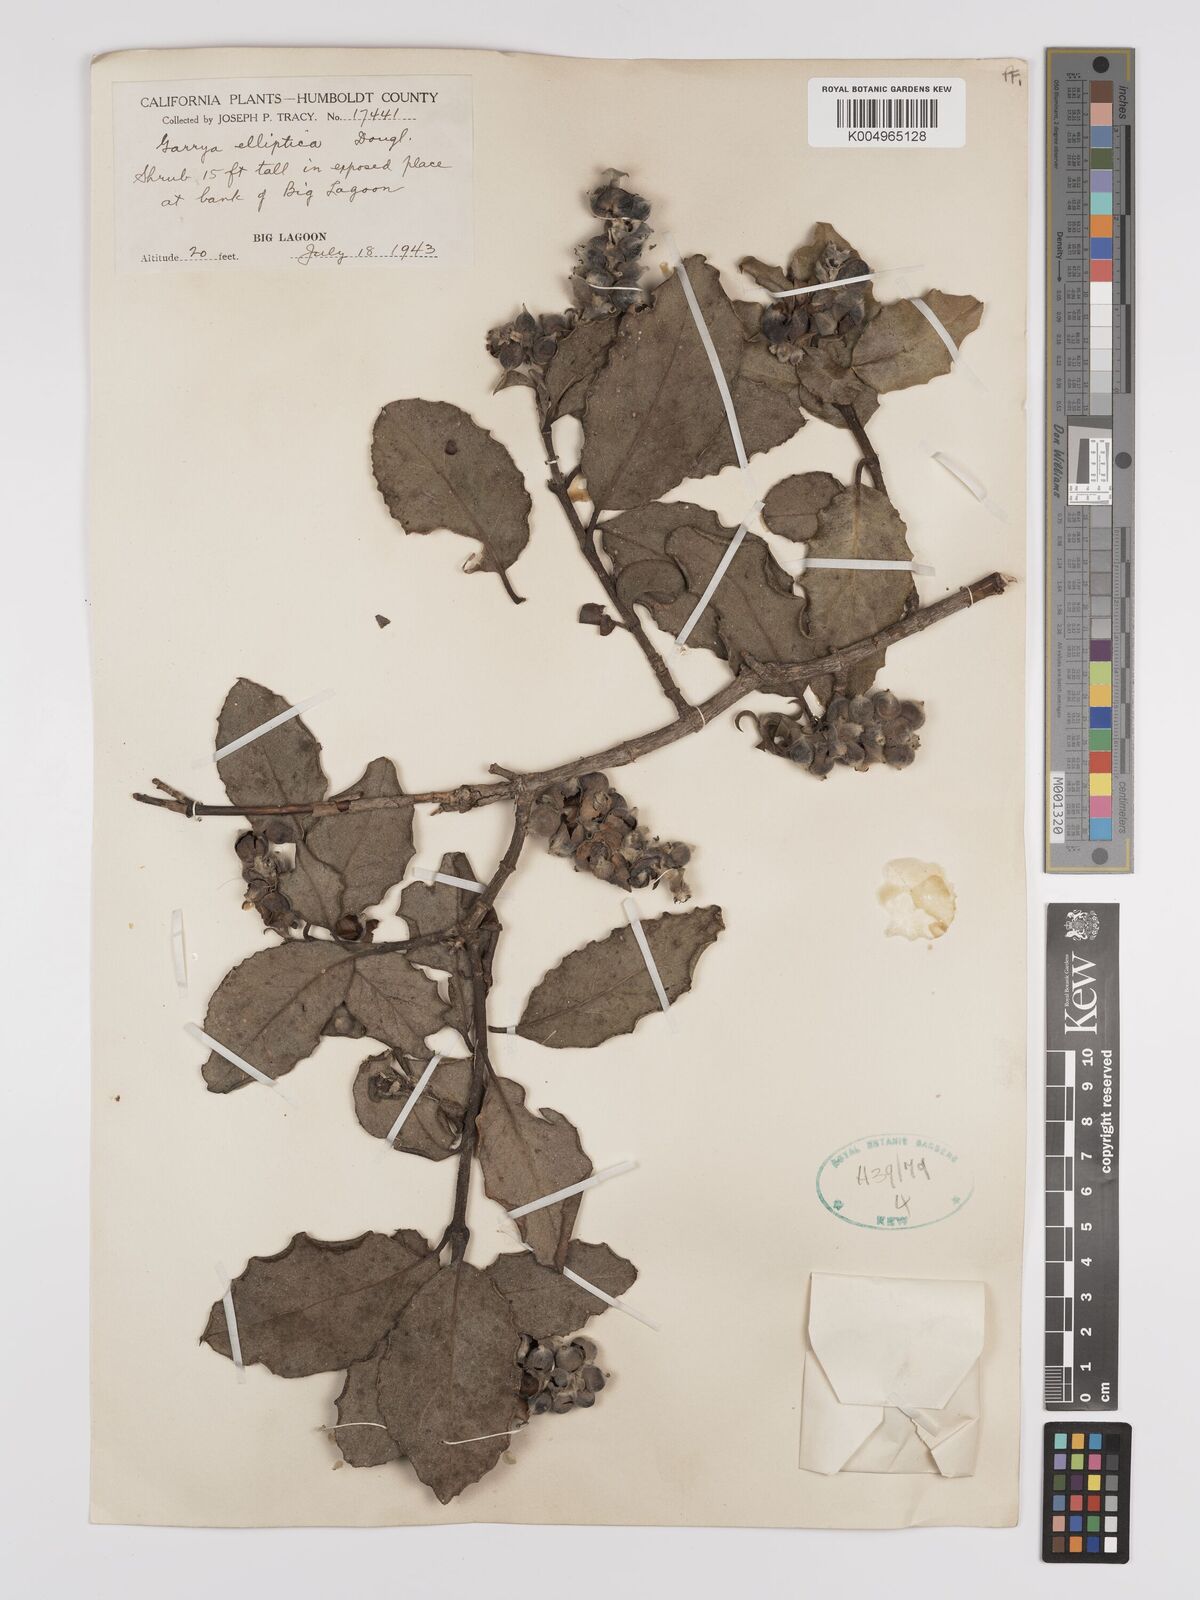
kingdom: Plantae
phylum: Tracheophyta
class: Magnoliopsida
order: Garryales
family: Garryaceae
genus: Garrya
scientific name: Garrya elliptica
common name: Silk-tassel
